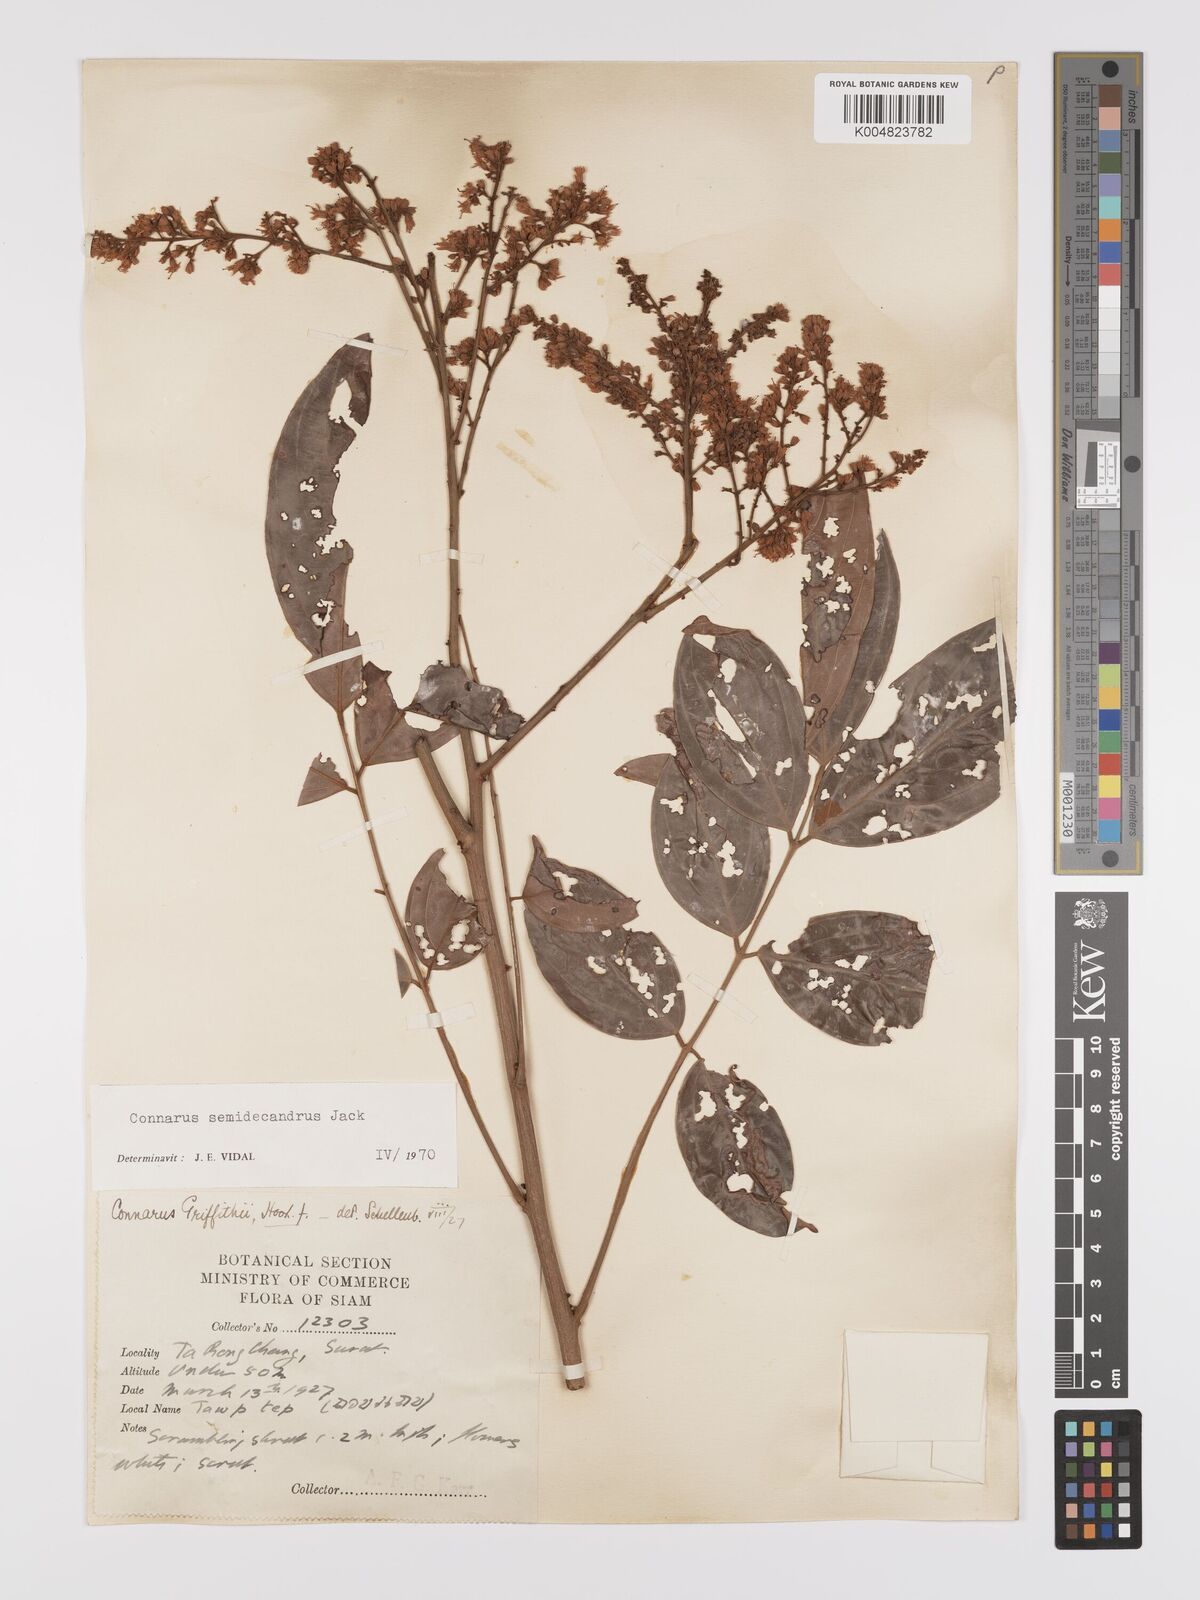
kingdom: Plantae
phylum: Tracheophyta
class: Magnoliopsida
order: Oxalidales
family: Connaraceae
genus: Connarus
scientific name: Connarus semidecandrus
